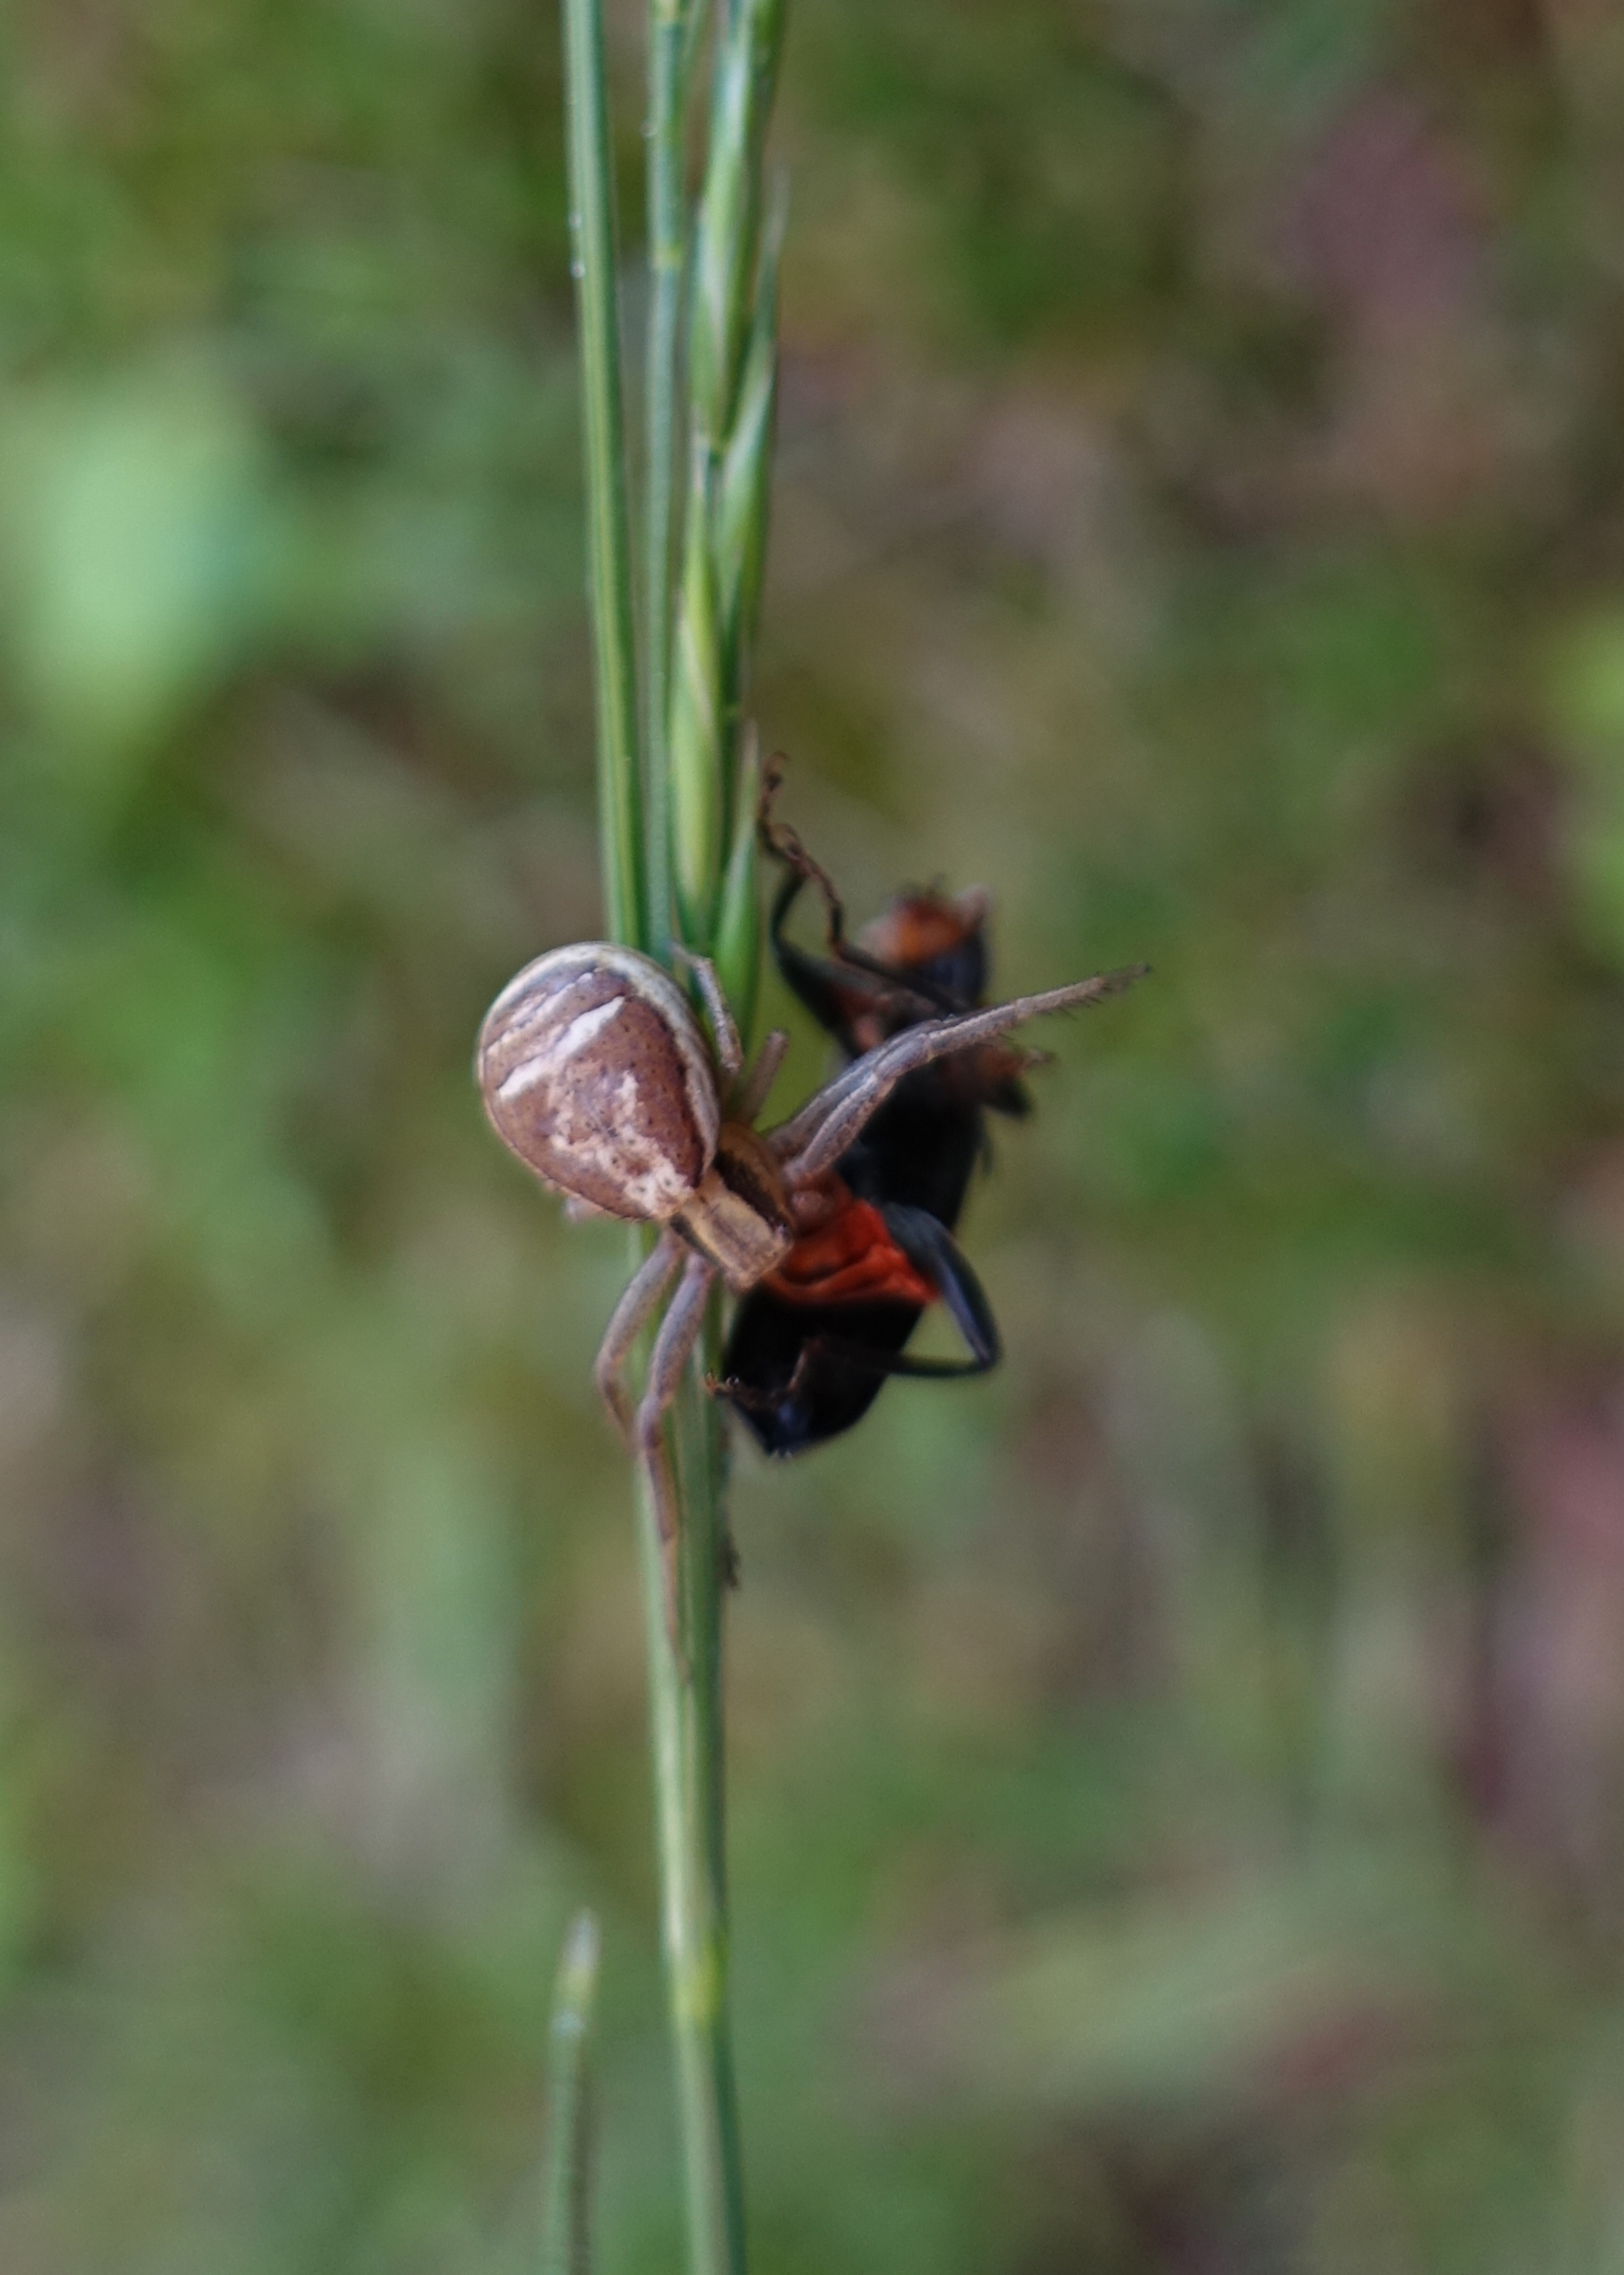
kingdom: Animalia
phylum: Arthropoda
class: Arachnida
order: Araneae
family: Thomisidae
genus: Xysticus
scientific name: Xysticus ulmi
